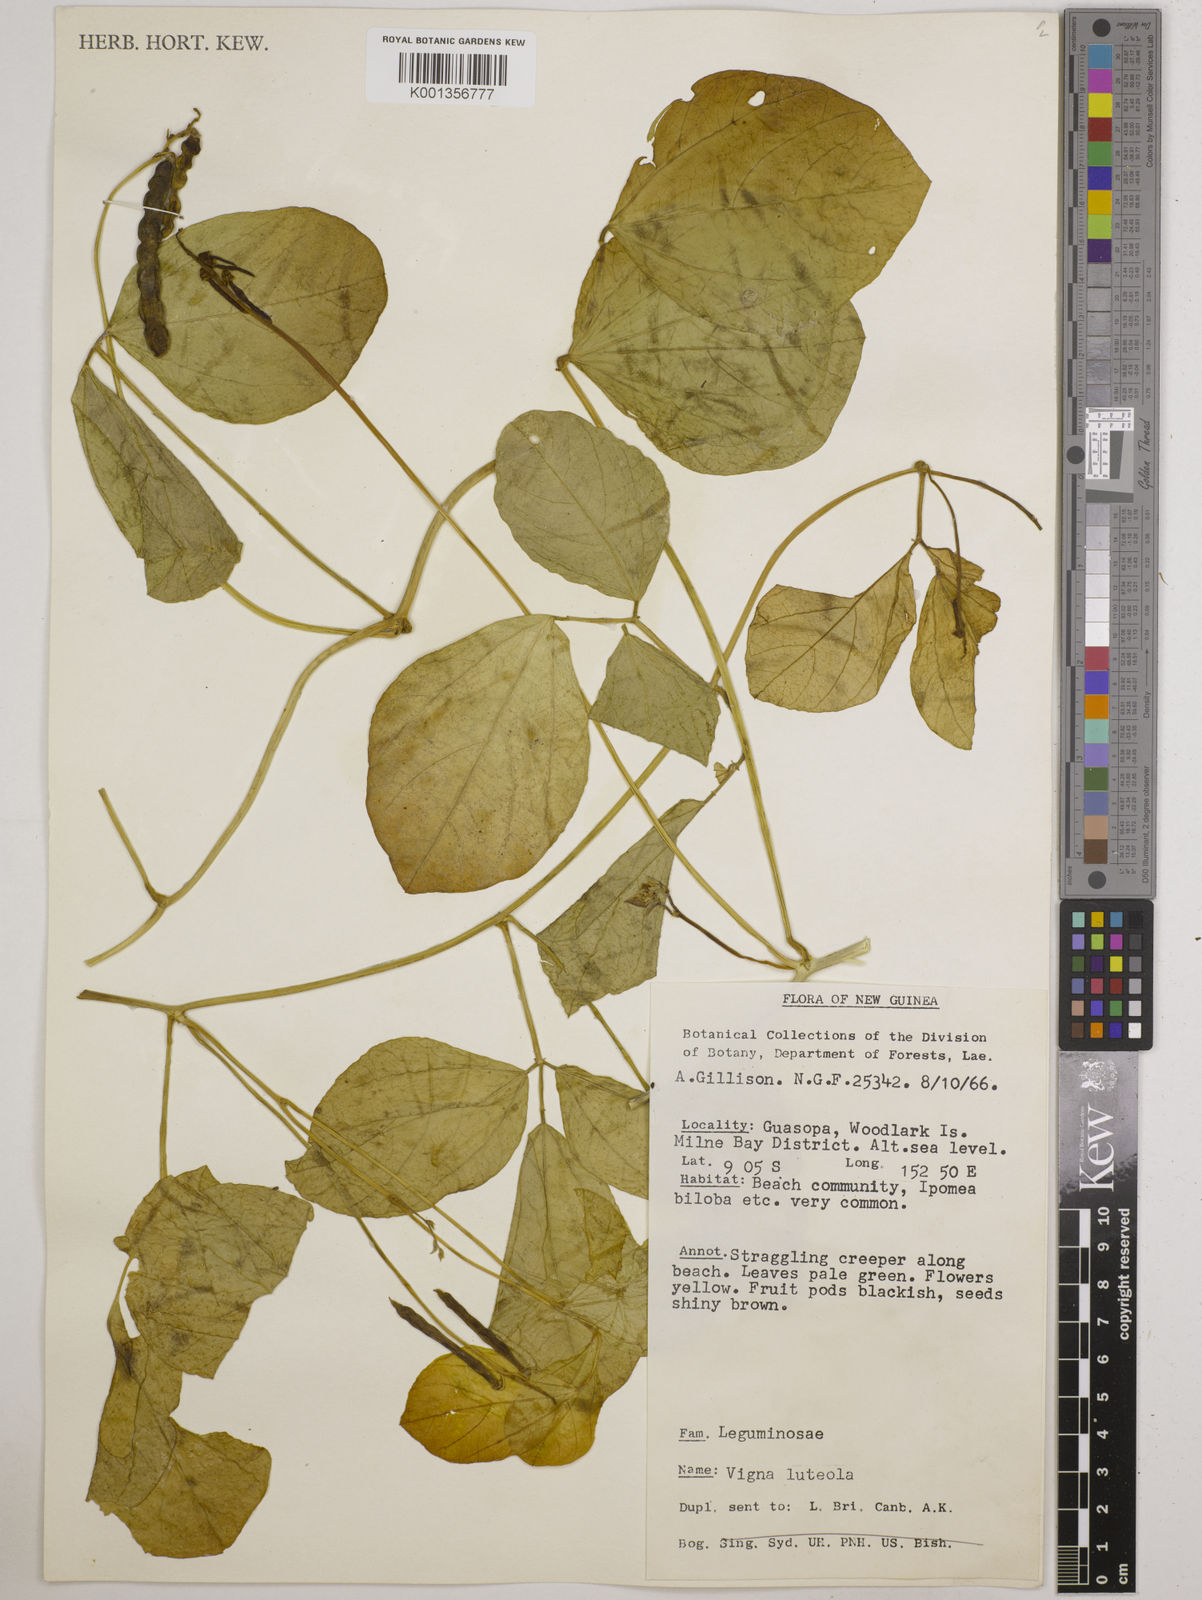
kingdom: Plantae
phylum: Tracheophyta
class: Magnoliopsida
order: Fabales
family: Fabaceae
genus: Vigna
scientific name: Vigna marina
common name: Dune-bean
